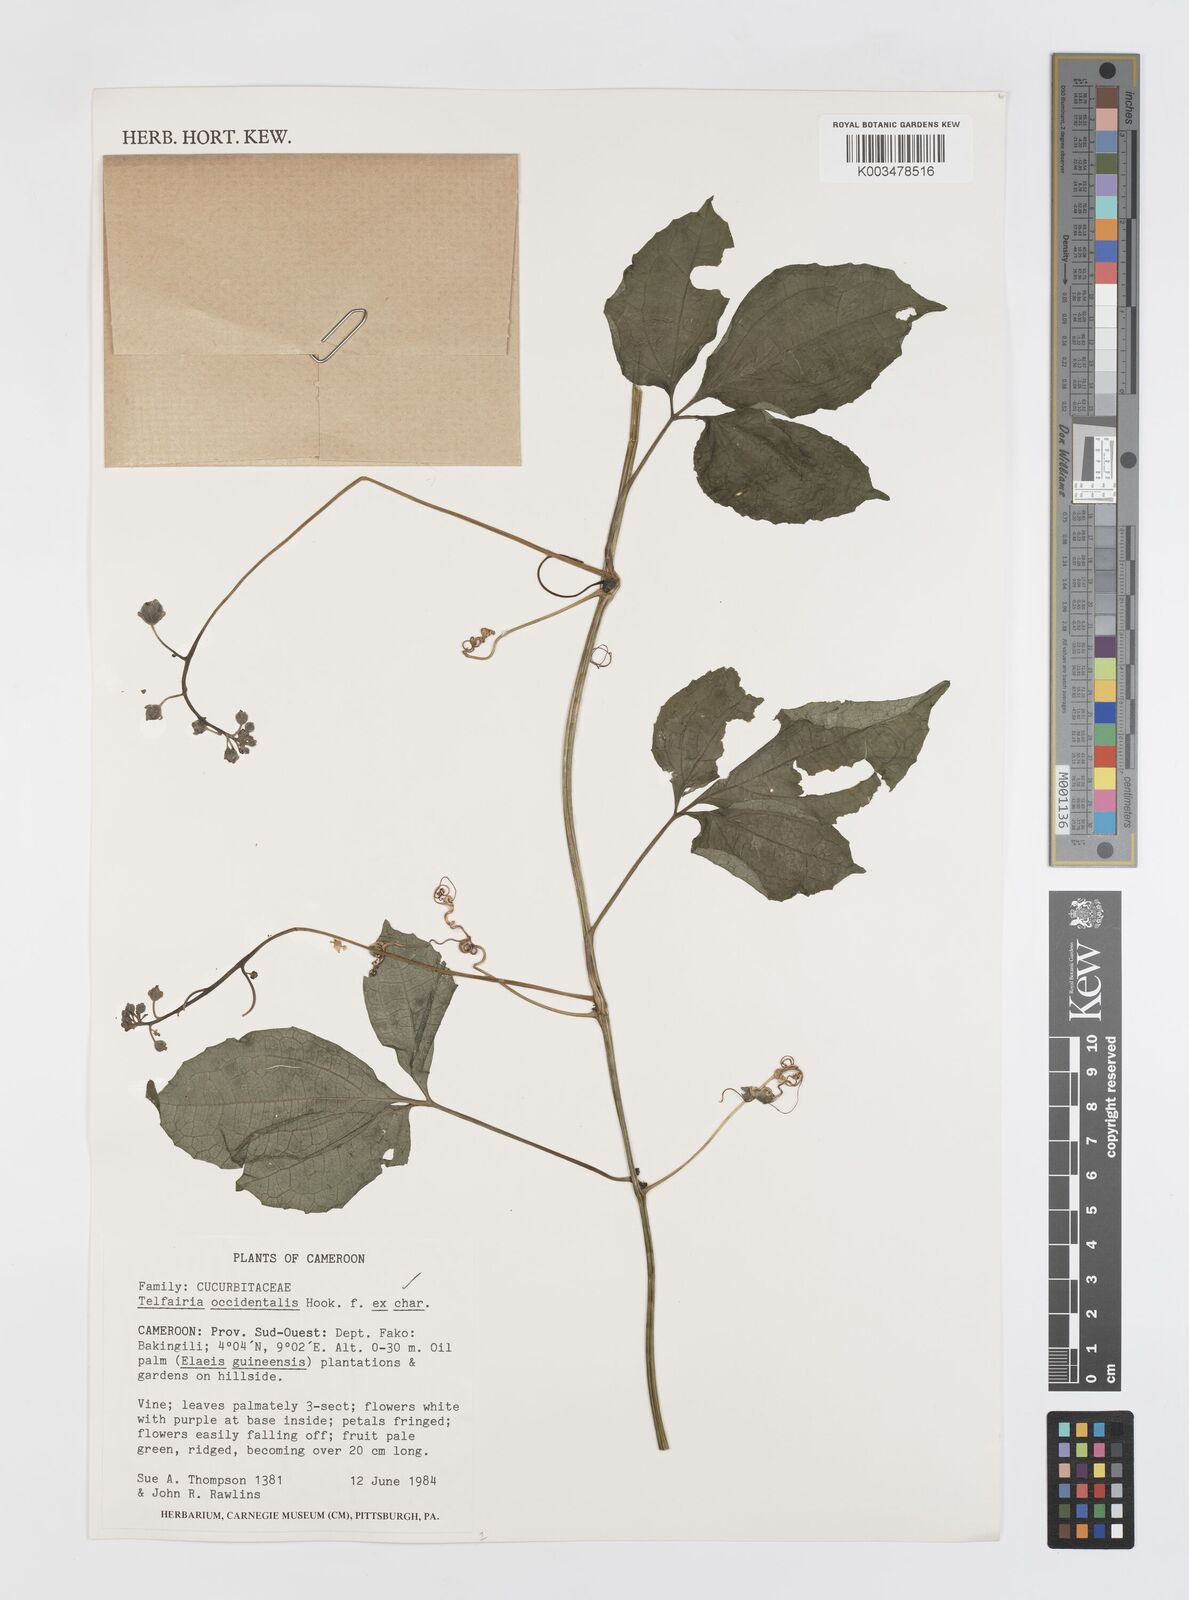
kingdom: Plantae
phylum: Tracheophyta
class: Magnoliopsida
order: Cucurbitales
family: Cucurbitaceae
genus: Telfairia
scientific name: Telfairia occidentalis
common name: Oysternut
